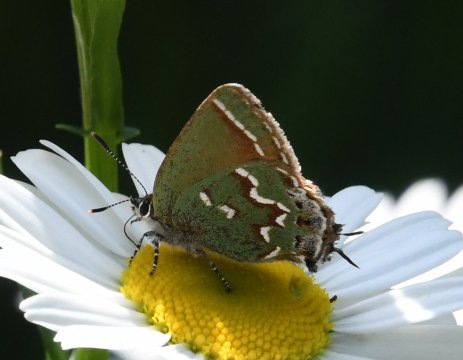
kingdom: Animalia
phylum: Arthropoda
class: Insecta
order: Lepidoptera
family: Lycaenidae
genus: Mitoura
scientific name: Mitoura gryneus
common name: Juniper Hairstreak
